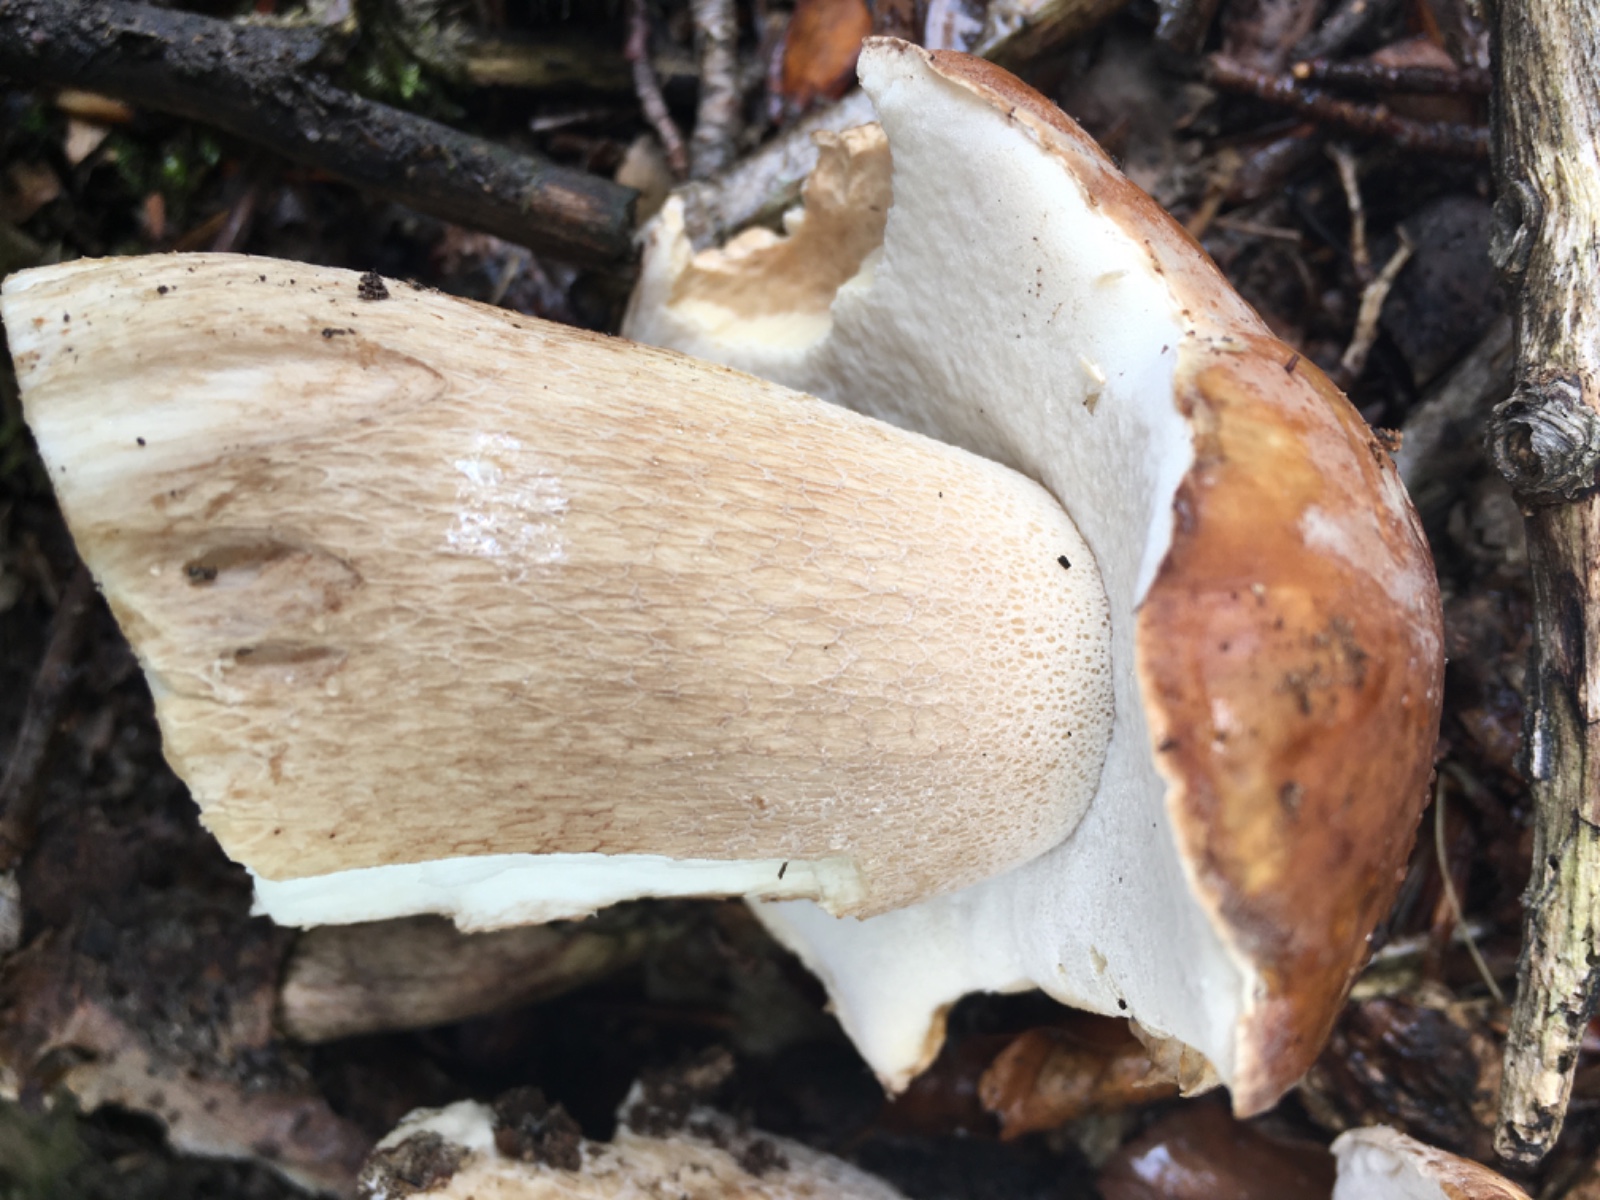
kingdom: Fungi
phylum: Basidiomycota
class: Agaricomycetes
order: Boletales
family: Boletaceae
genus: Boletus
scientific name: Boletus edulis
